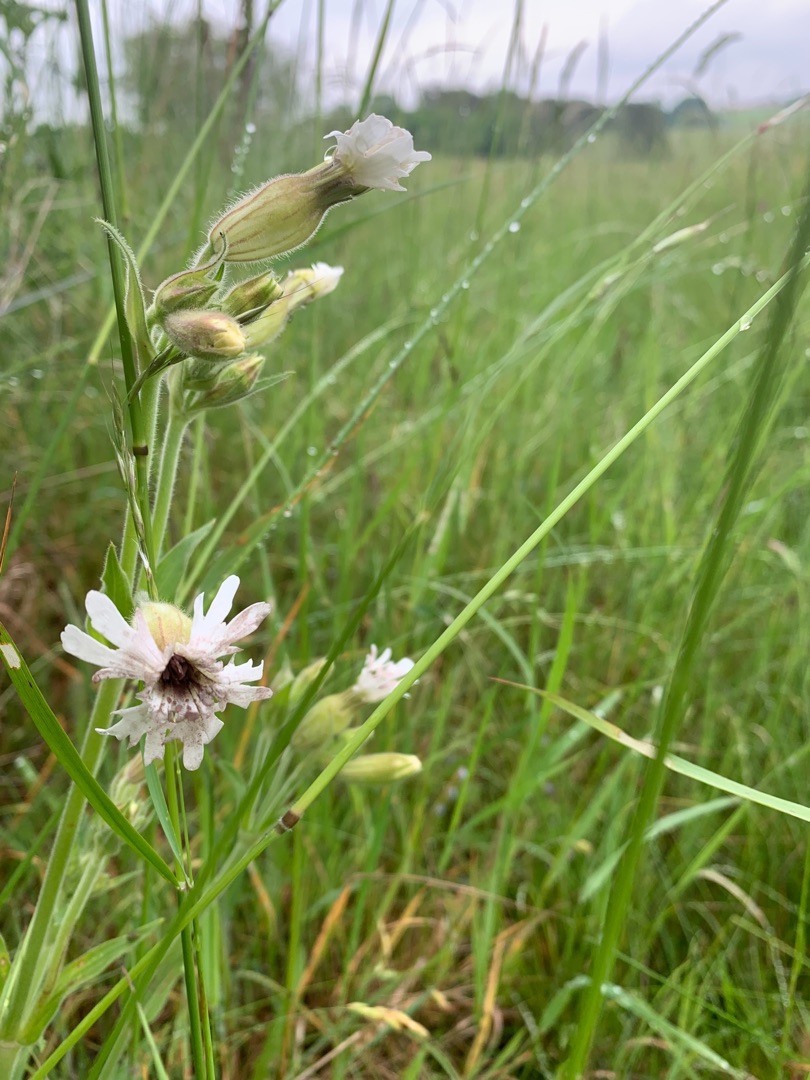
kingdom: Plantae
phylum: Tracheophyta
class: Magnoliopsida
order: Caryophyllales
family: Caryophyllaceae
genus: Silene
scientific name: Silene latifolia
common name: Aftenpragtstjerne
